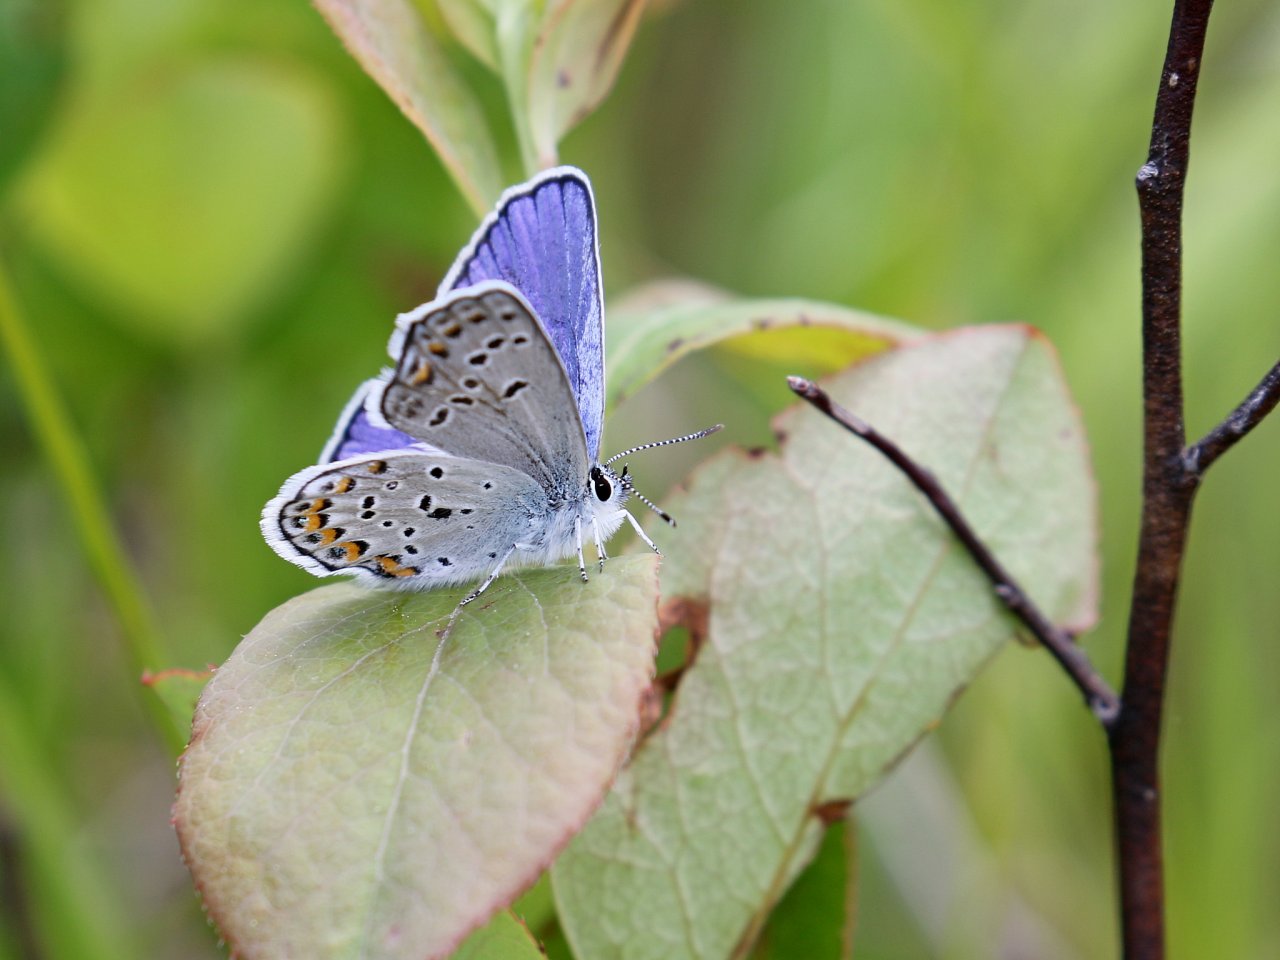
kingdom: Animalia
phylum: Arthropoda
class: Insecta
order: Lepidoptera
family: Lycaenidae
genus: Plebejus
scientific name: Plebejus samuelis
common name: Karner Blue
